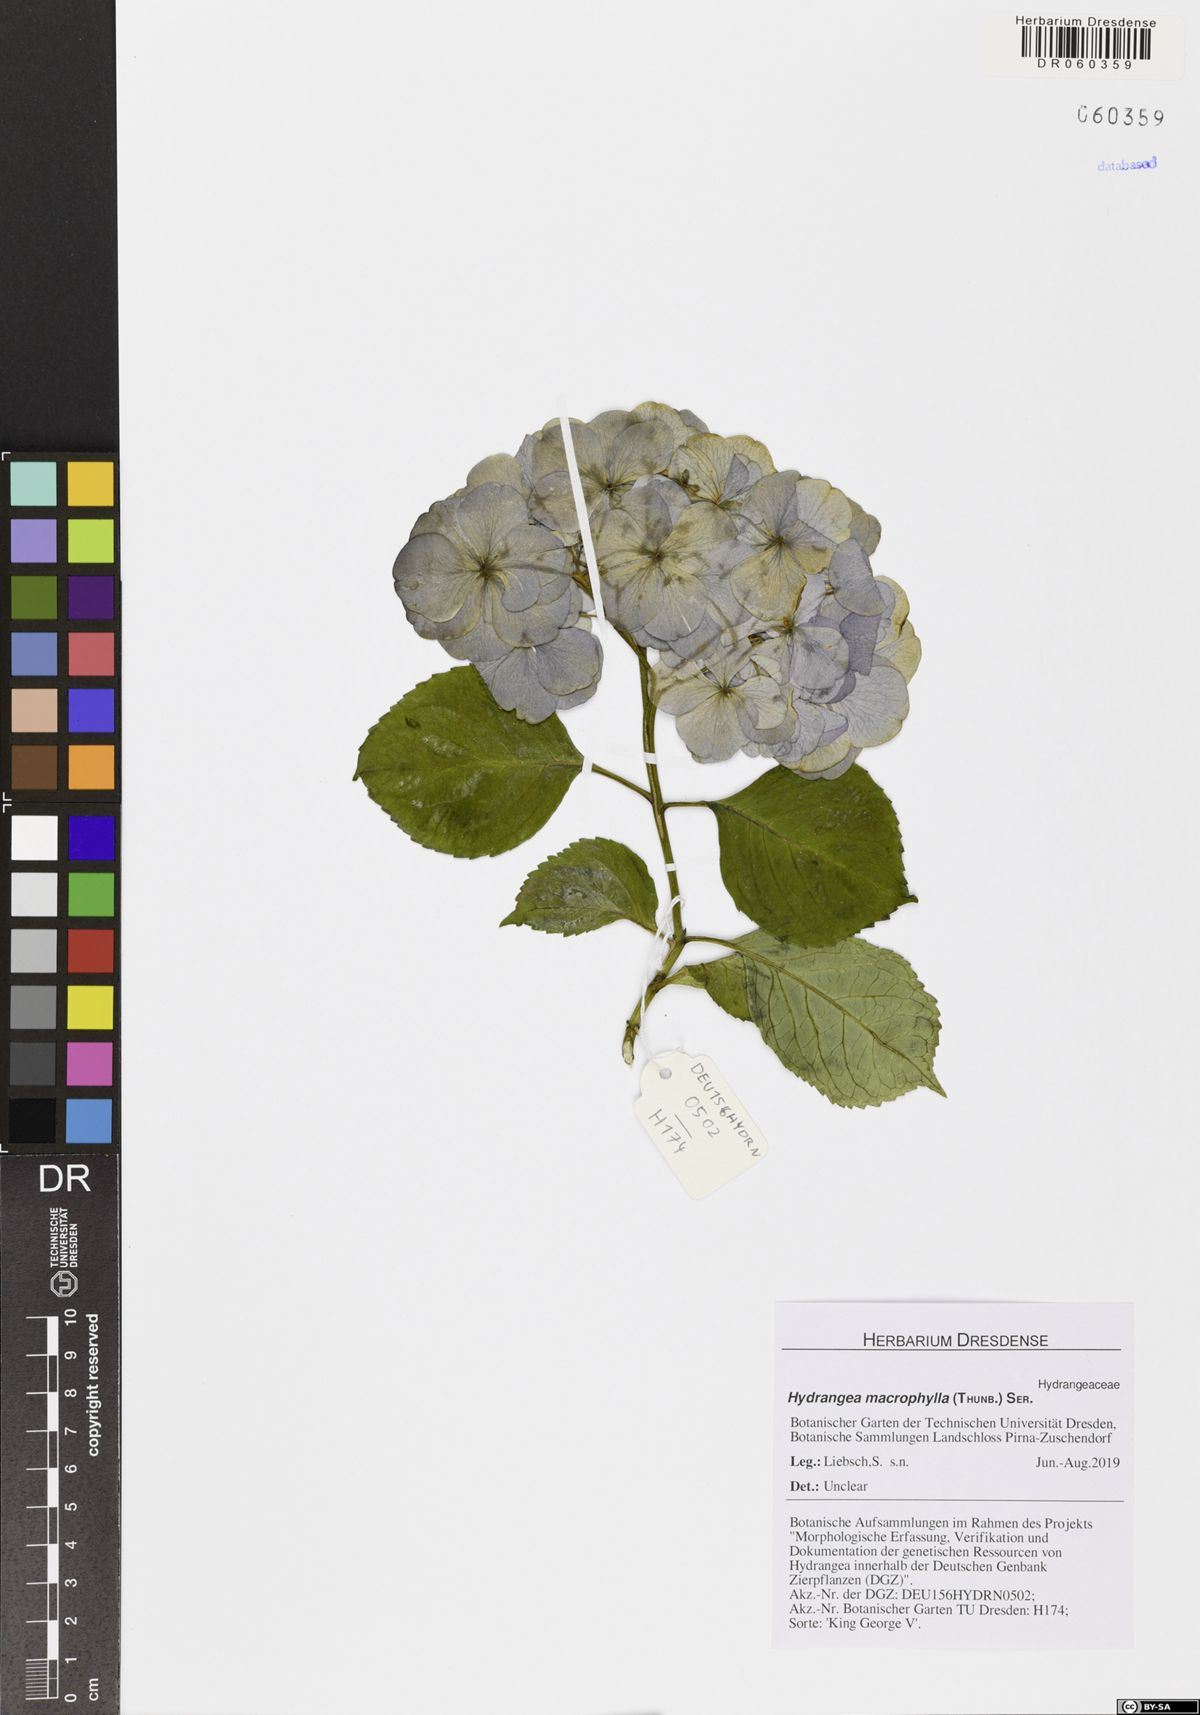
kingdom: Plantae
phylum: Tracheophyta
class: Magnoliopsida
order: Cornales
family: Hydrangeaceae
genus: Hydrangea
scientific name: Hydrangea macrophylla
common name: Hydrangea
